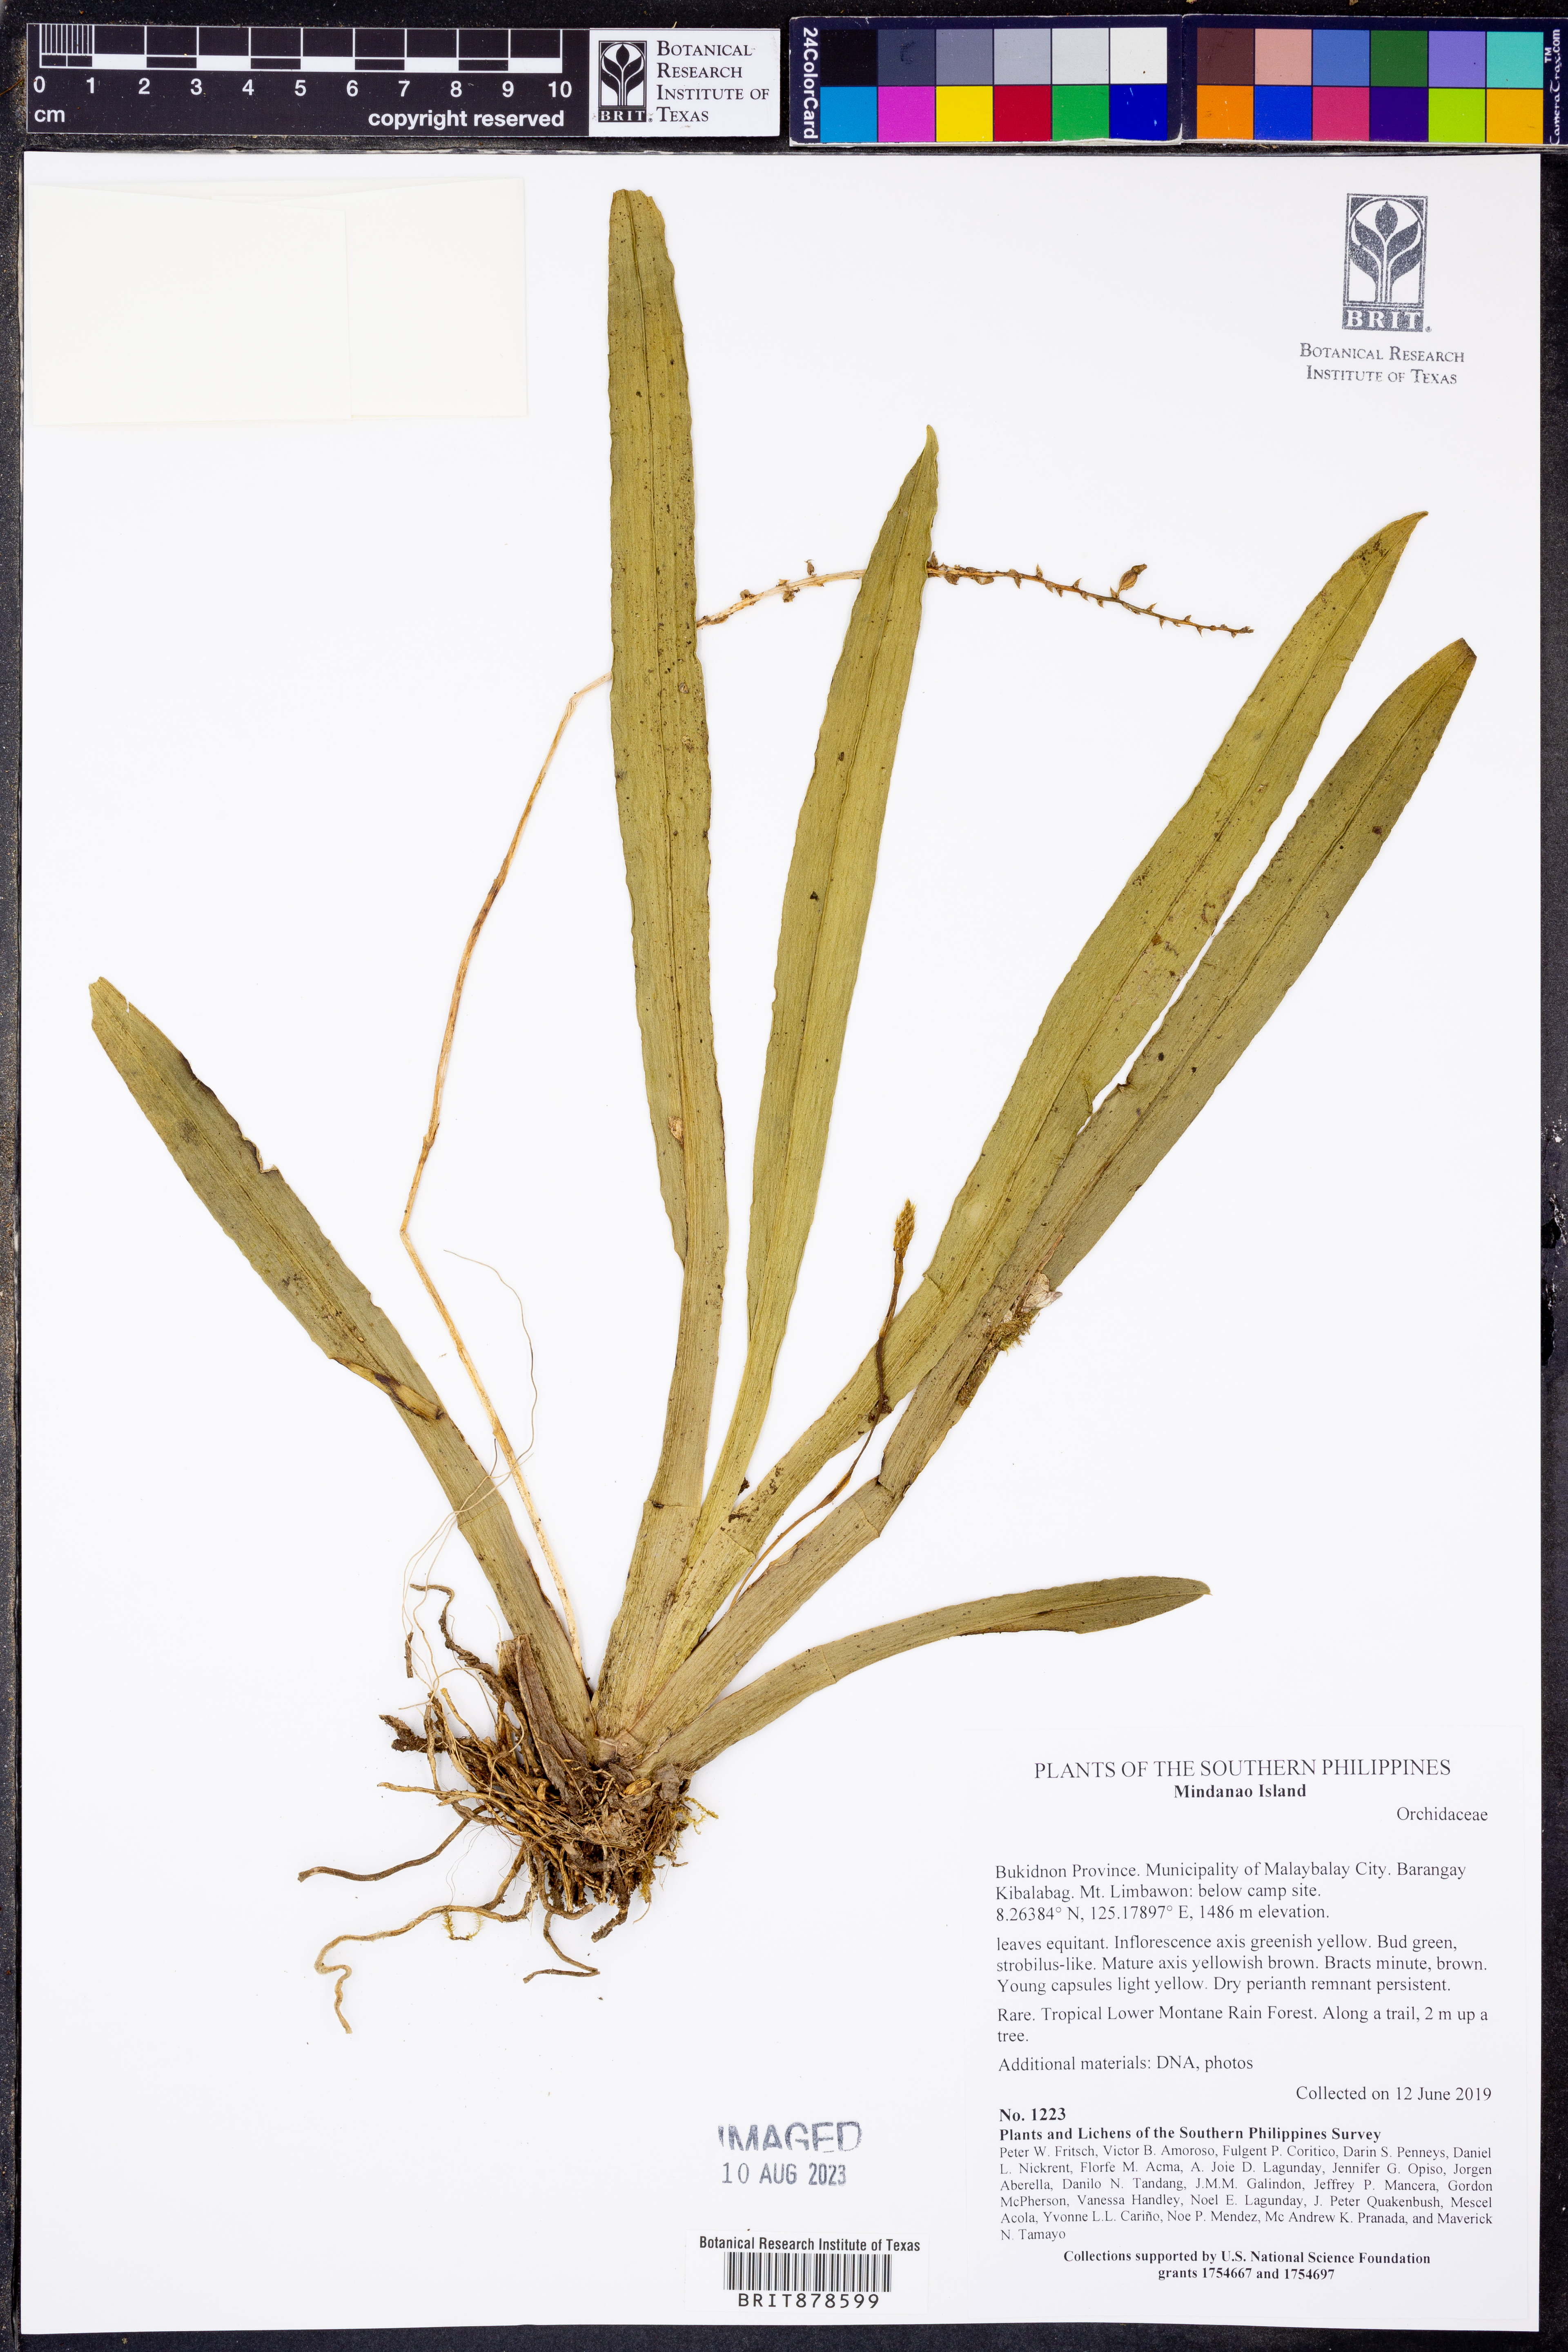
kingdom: Plantae
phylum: Tracheophyta
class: Liliopsida
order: Asparagales
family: Orchidaceae
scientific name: Orchidaceae
